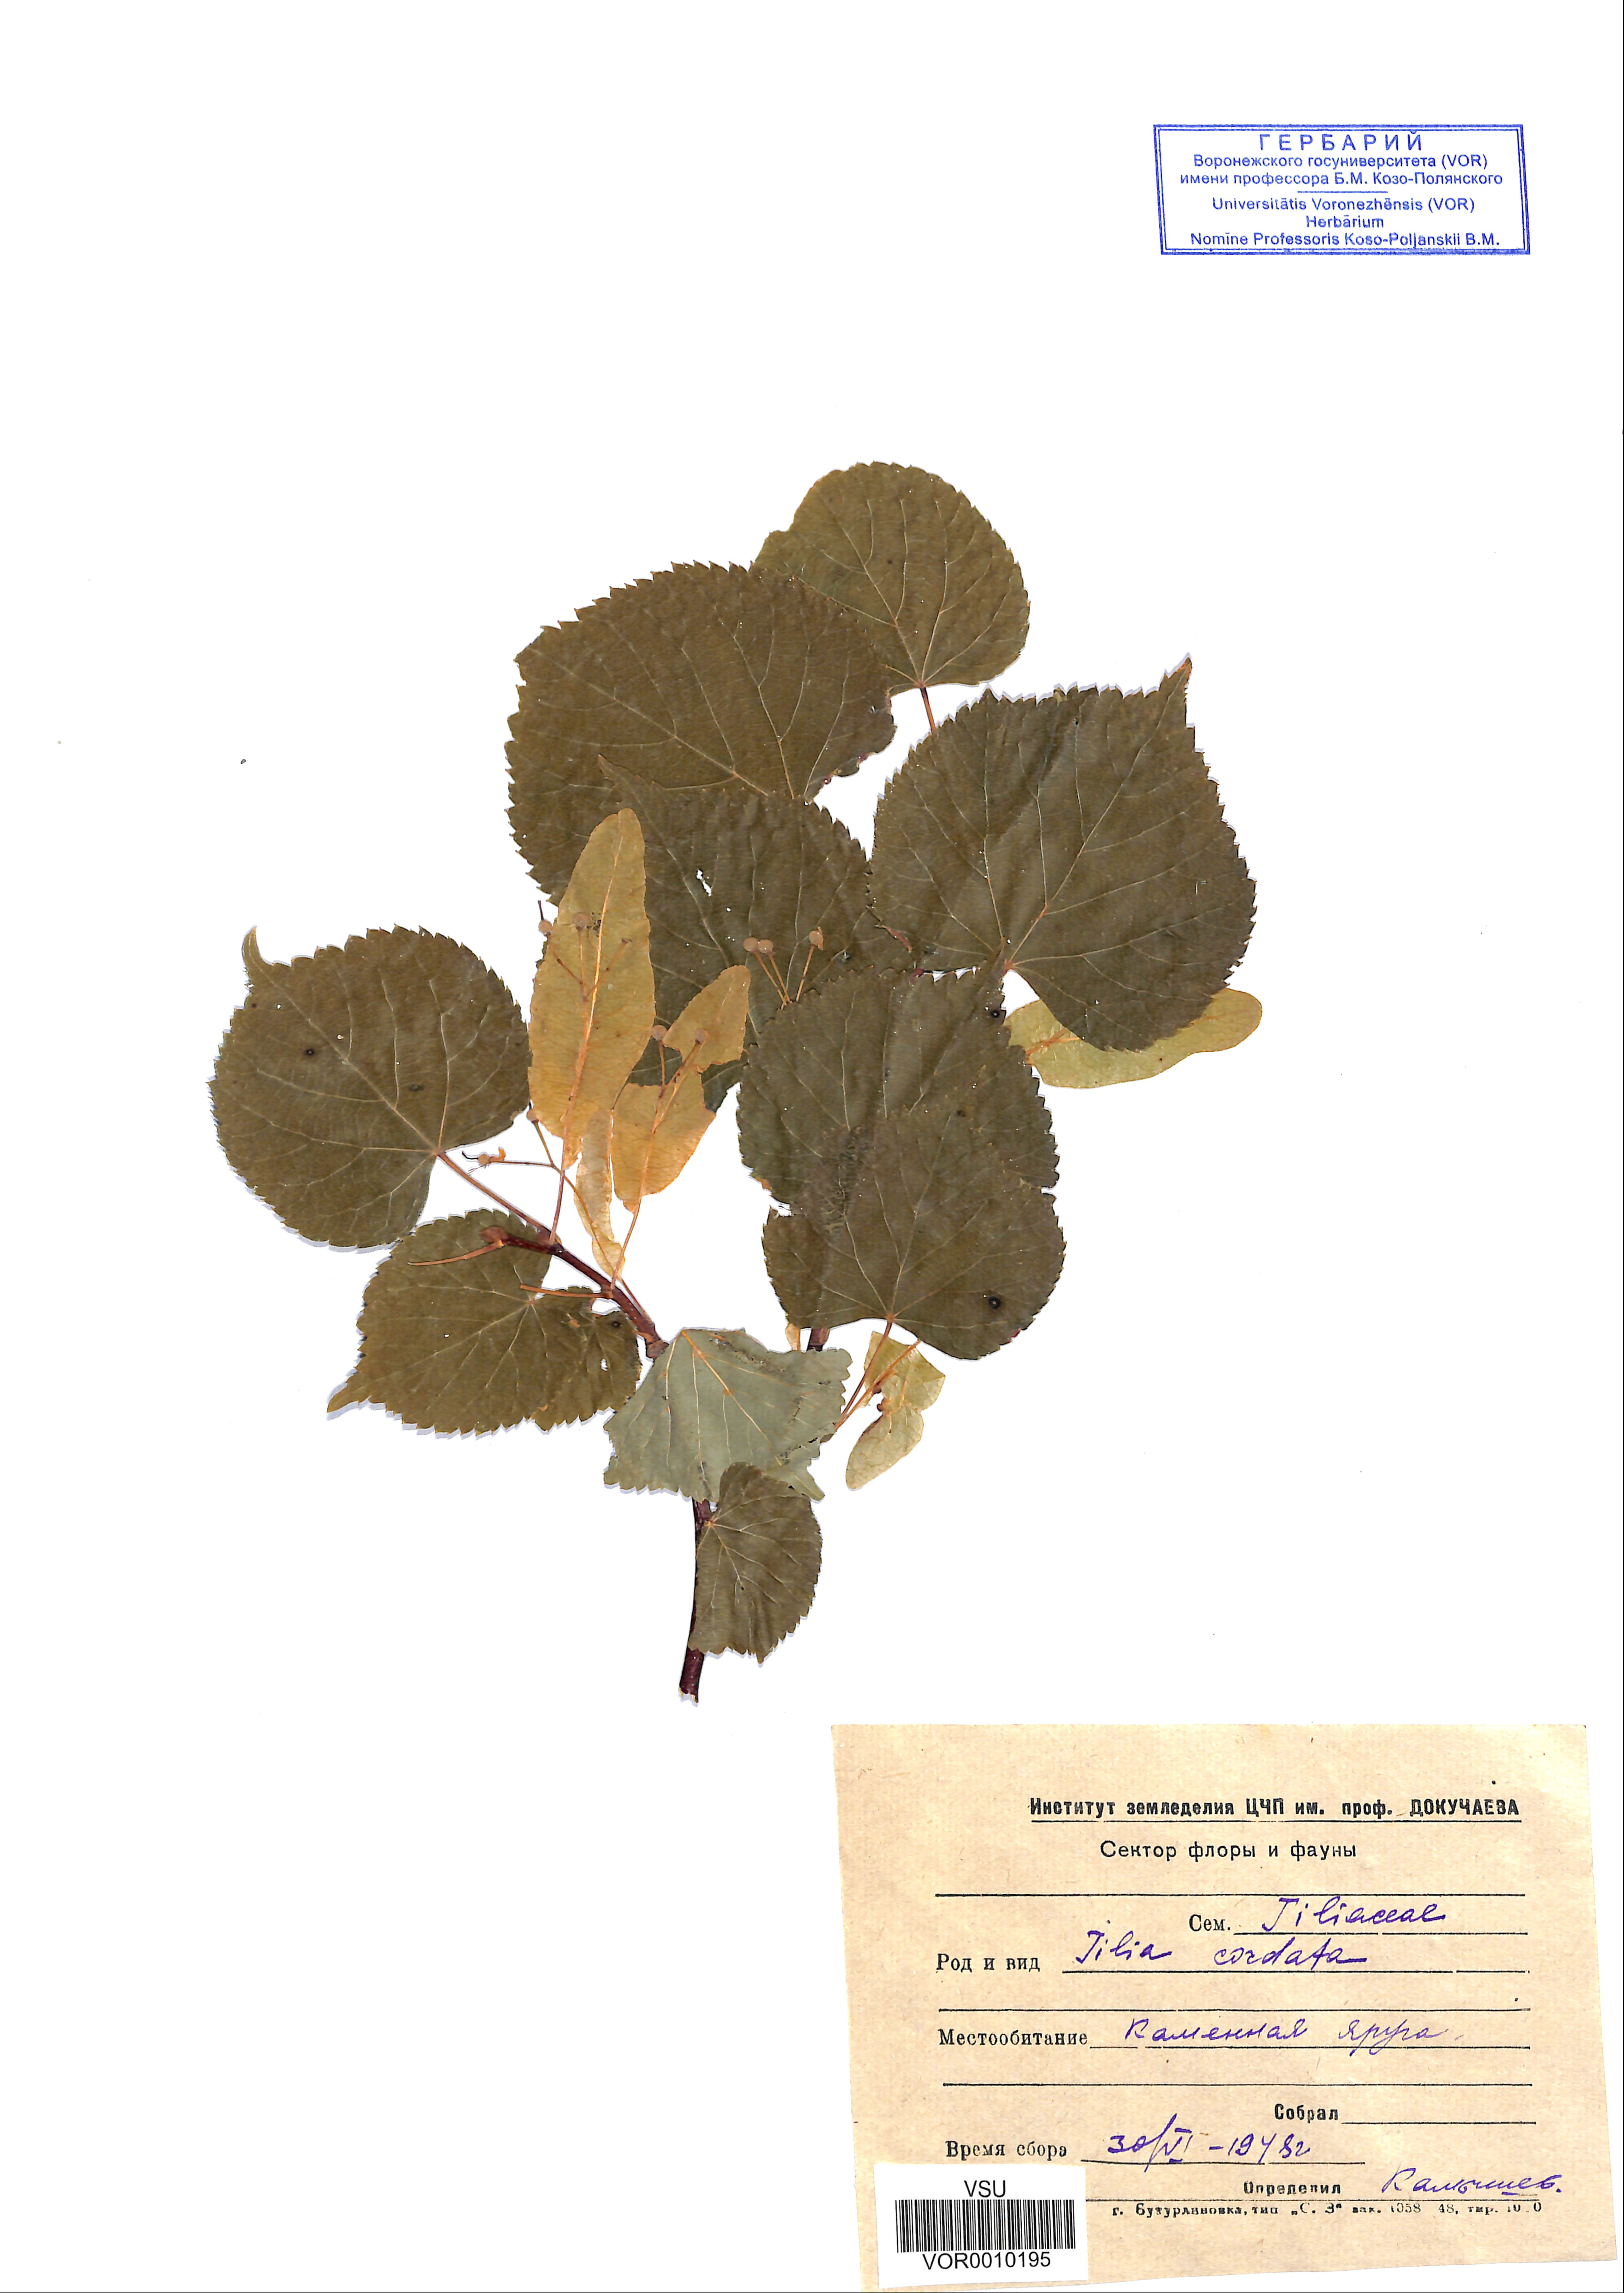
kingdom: Plantae
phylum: Tracheophyta
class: Magnoliopsida
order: Malvales
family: Malvaceae
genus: Tilia
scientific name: Tilia cordata
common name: Small-leaved lime
